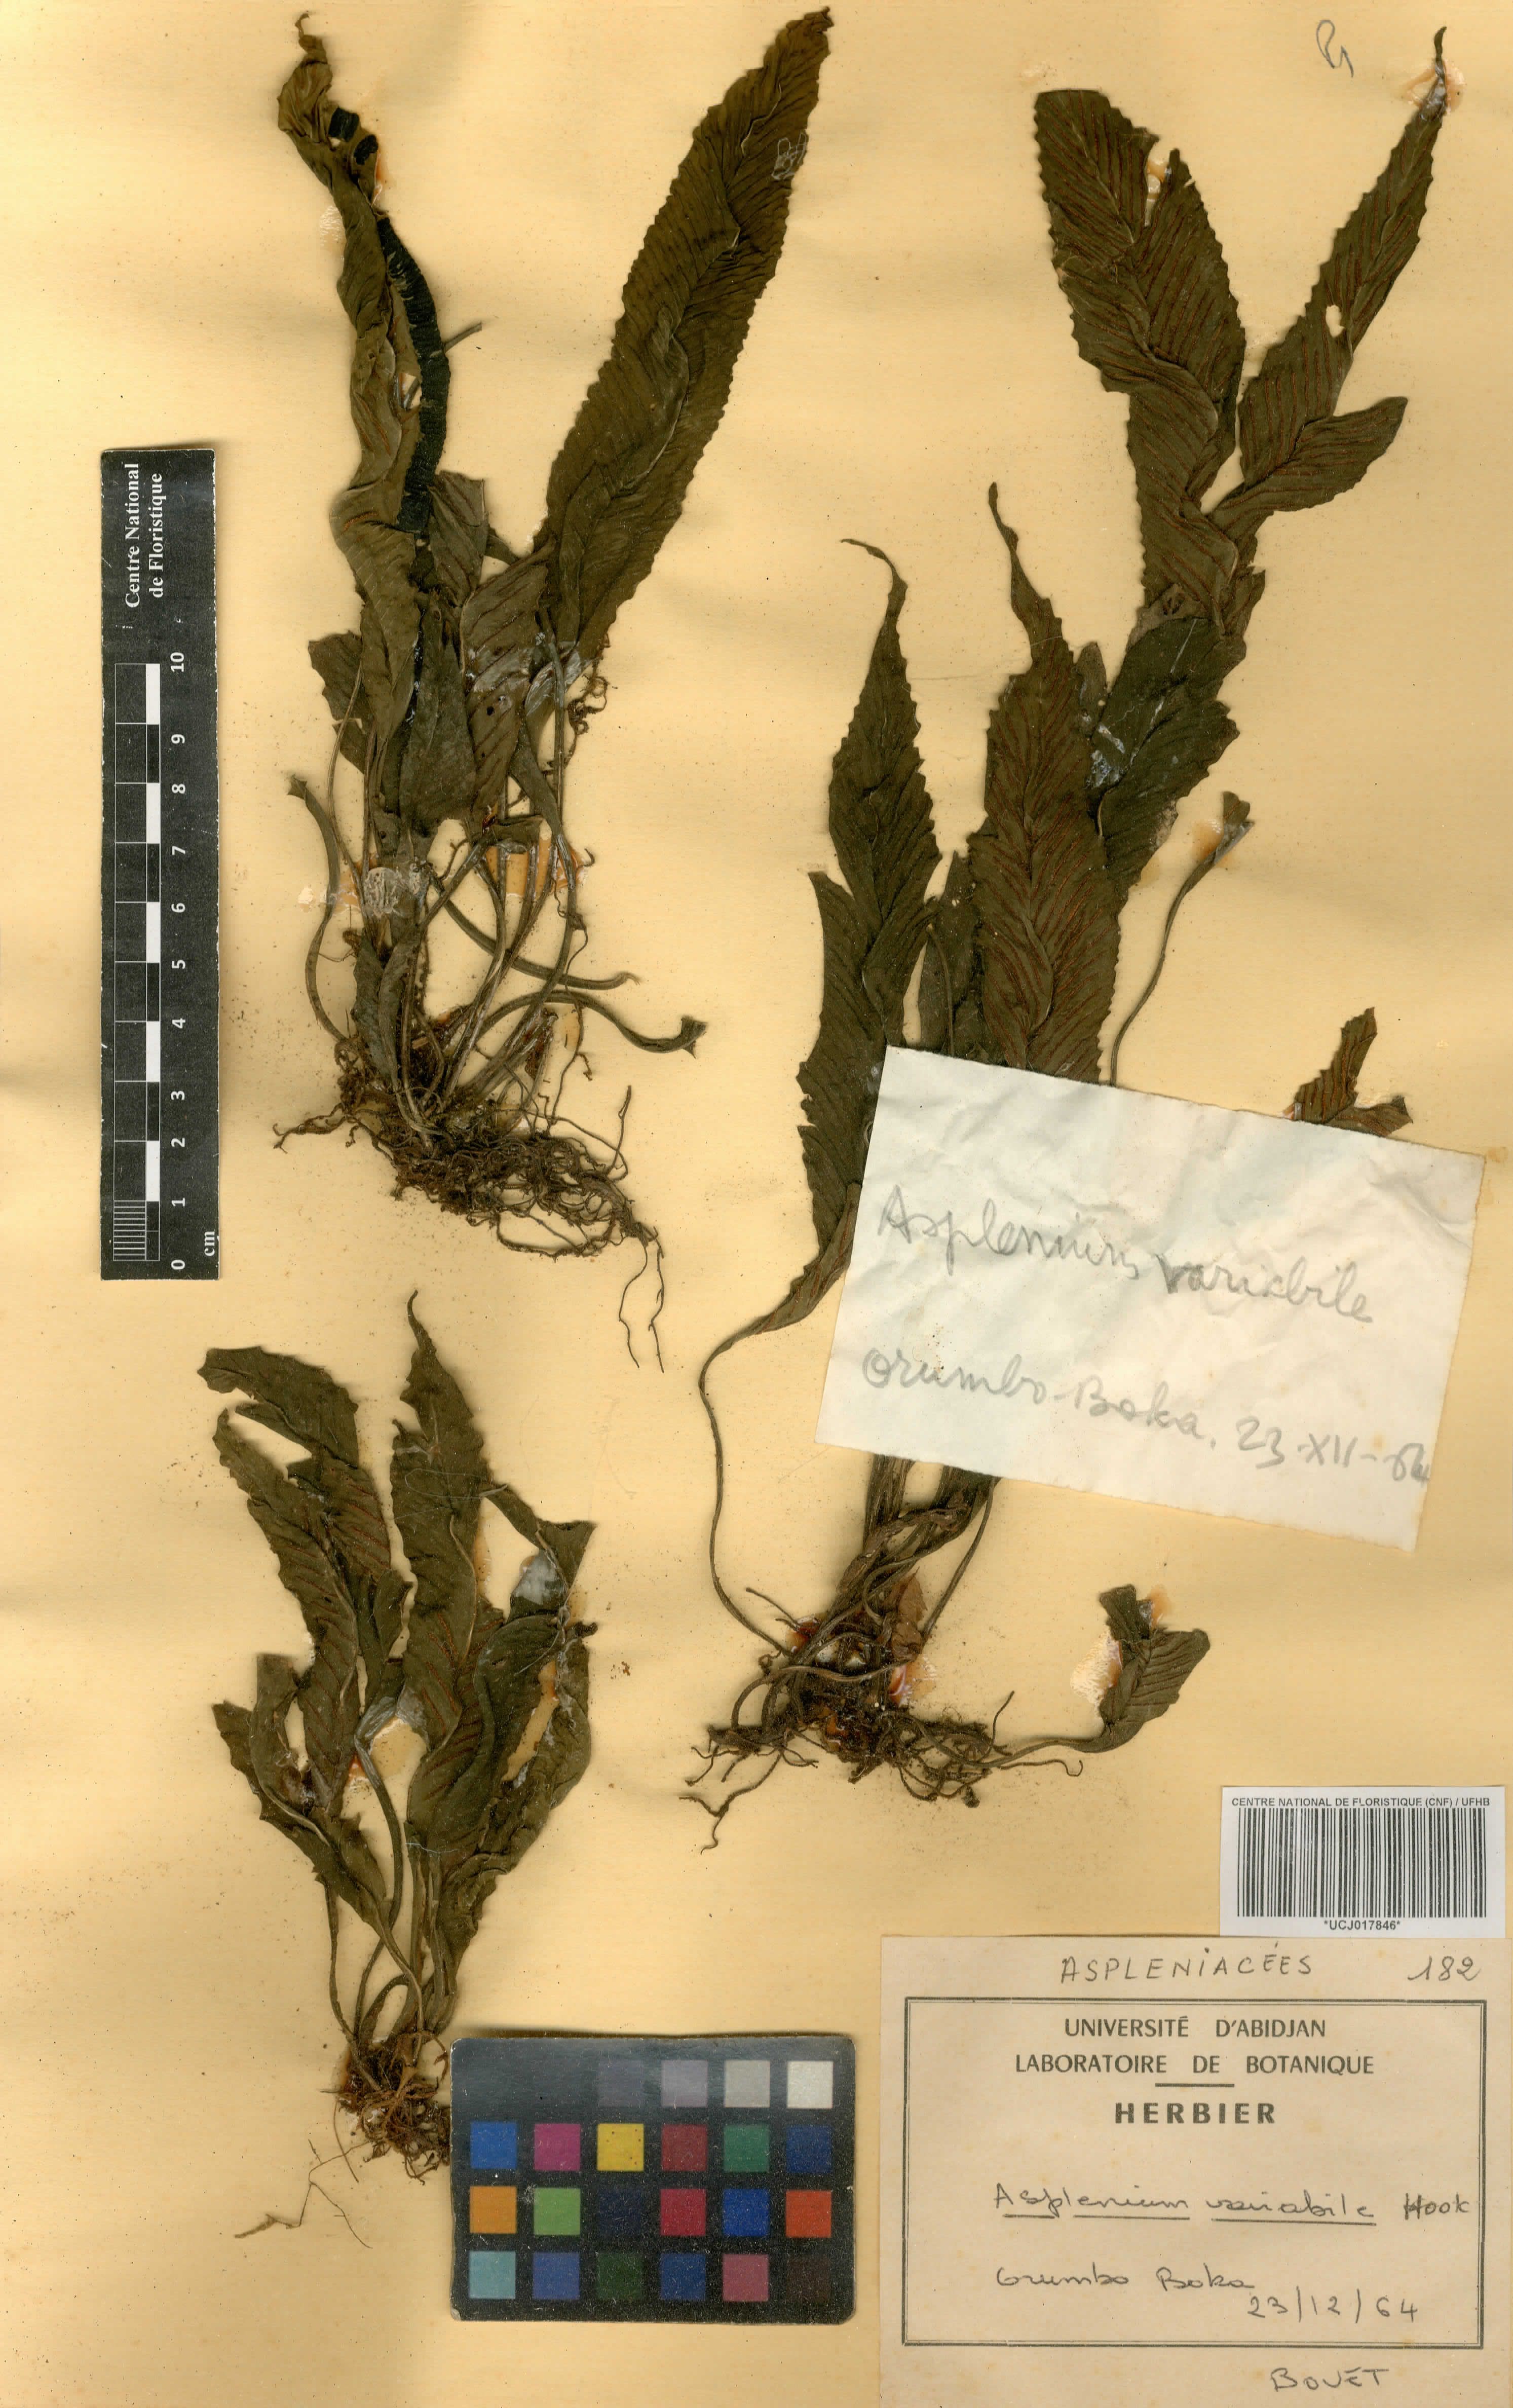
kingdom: Plantae
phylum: Tracheophyta
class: Polypodiopsida
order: Polypodiales
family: Aspleniaceae
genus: Asplenium
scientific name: Asplenium variabile
